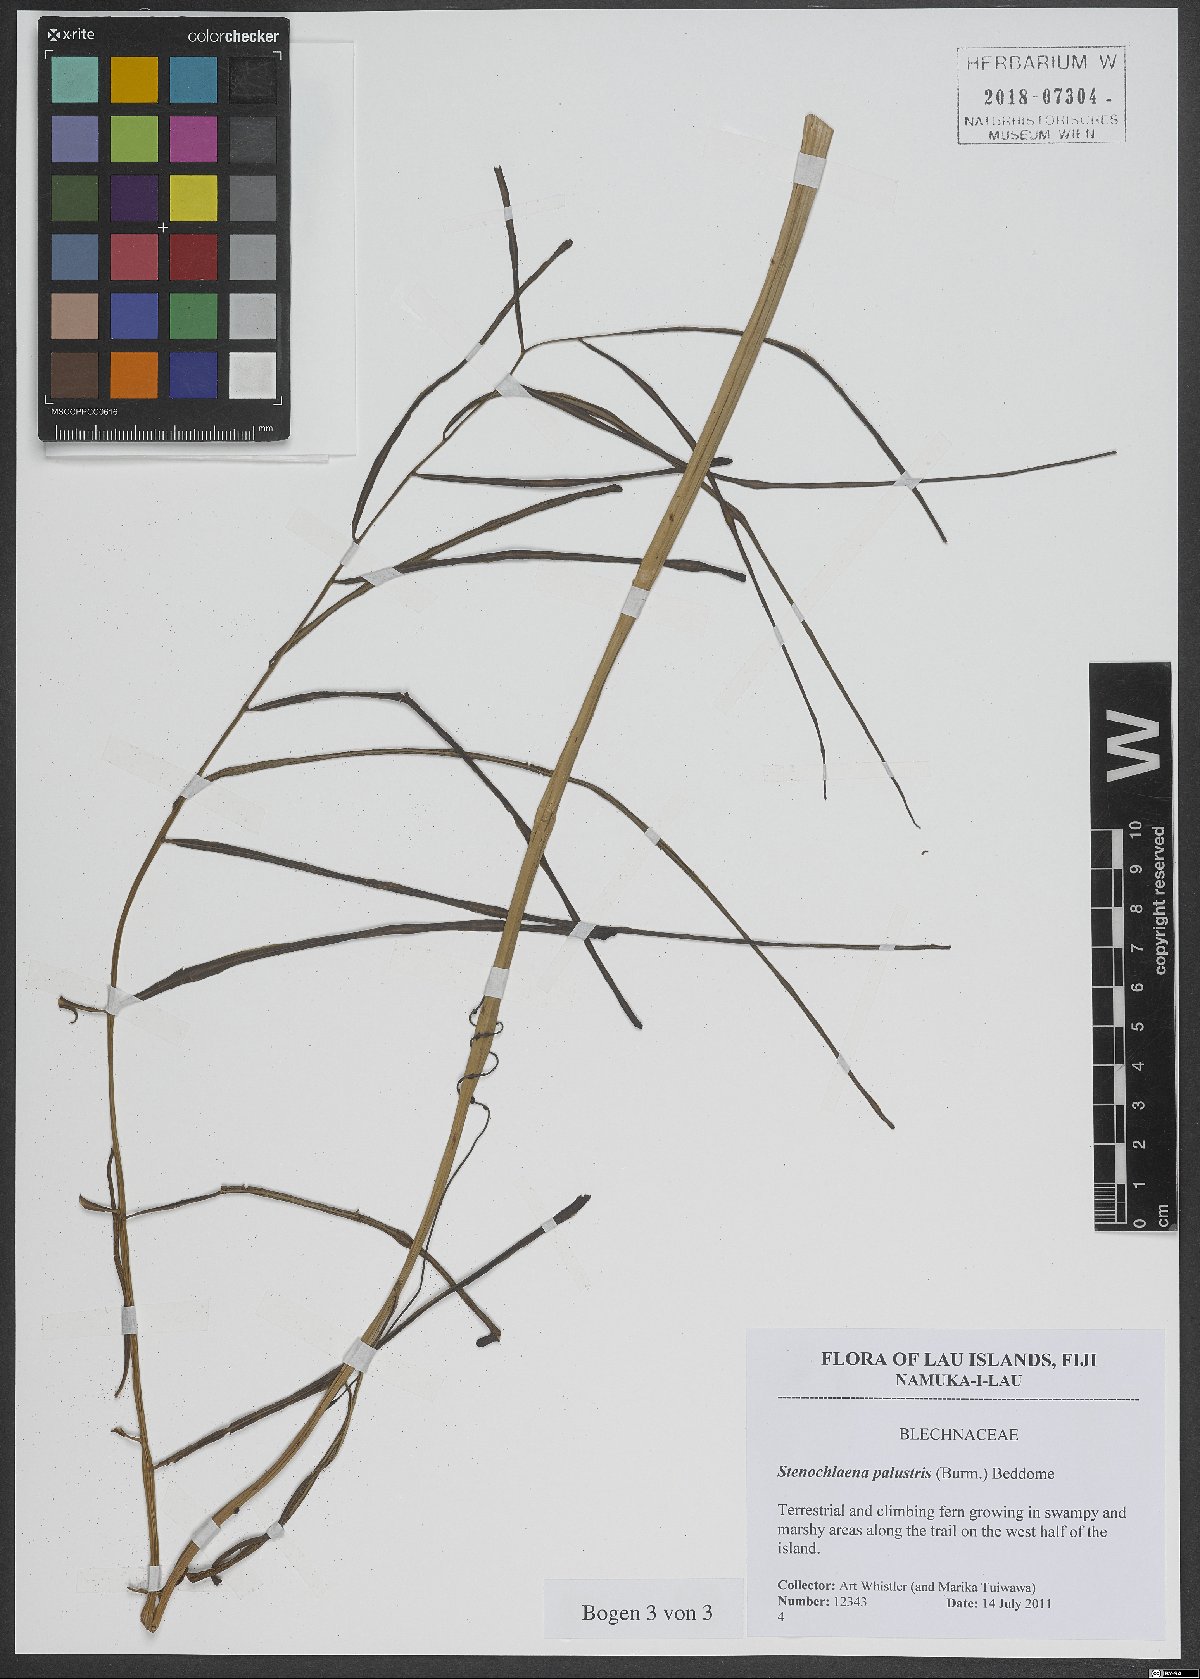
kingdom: Plantae
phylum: Tracheophyta
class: Polypodiopsida
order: Polypodiales
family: Blechnaceae
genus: Stenochlaena
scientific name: Stenochlaena palustris
